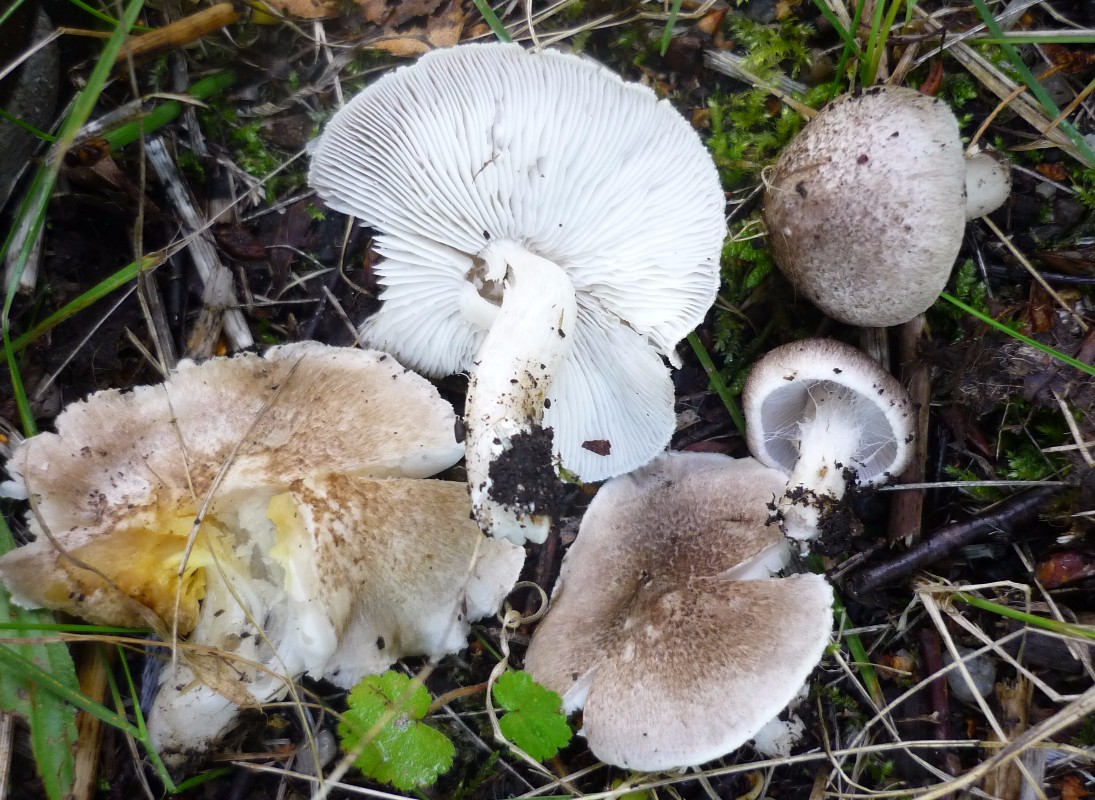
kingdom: Fungi
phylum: Basidiomycota
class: Agaricomycetes
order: Agaricales
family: Tricholomataceae
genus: Tricholoma
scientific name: Tricholoma argyraceum
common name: slør-ridderhat
